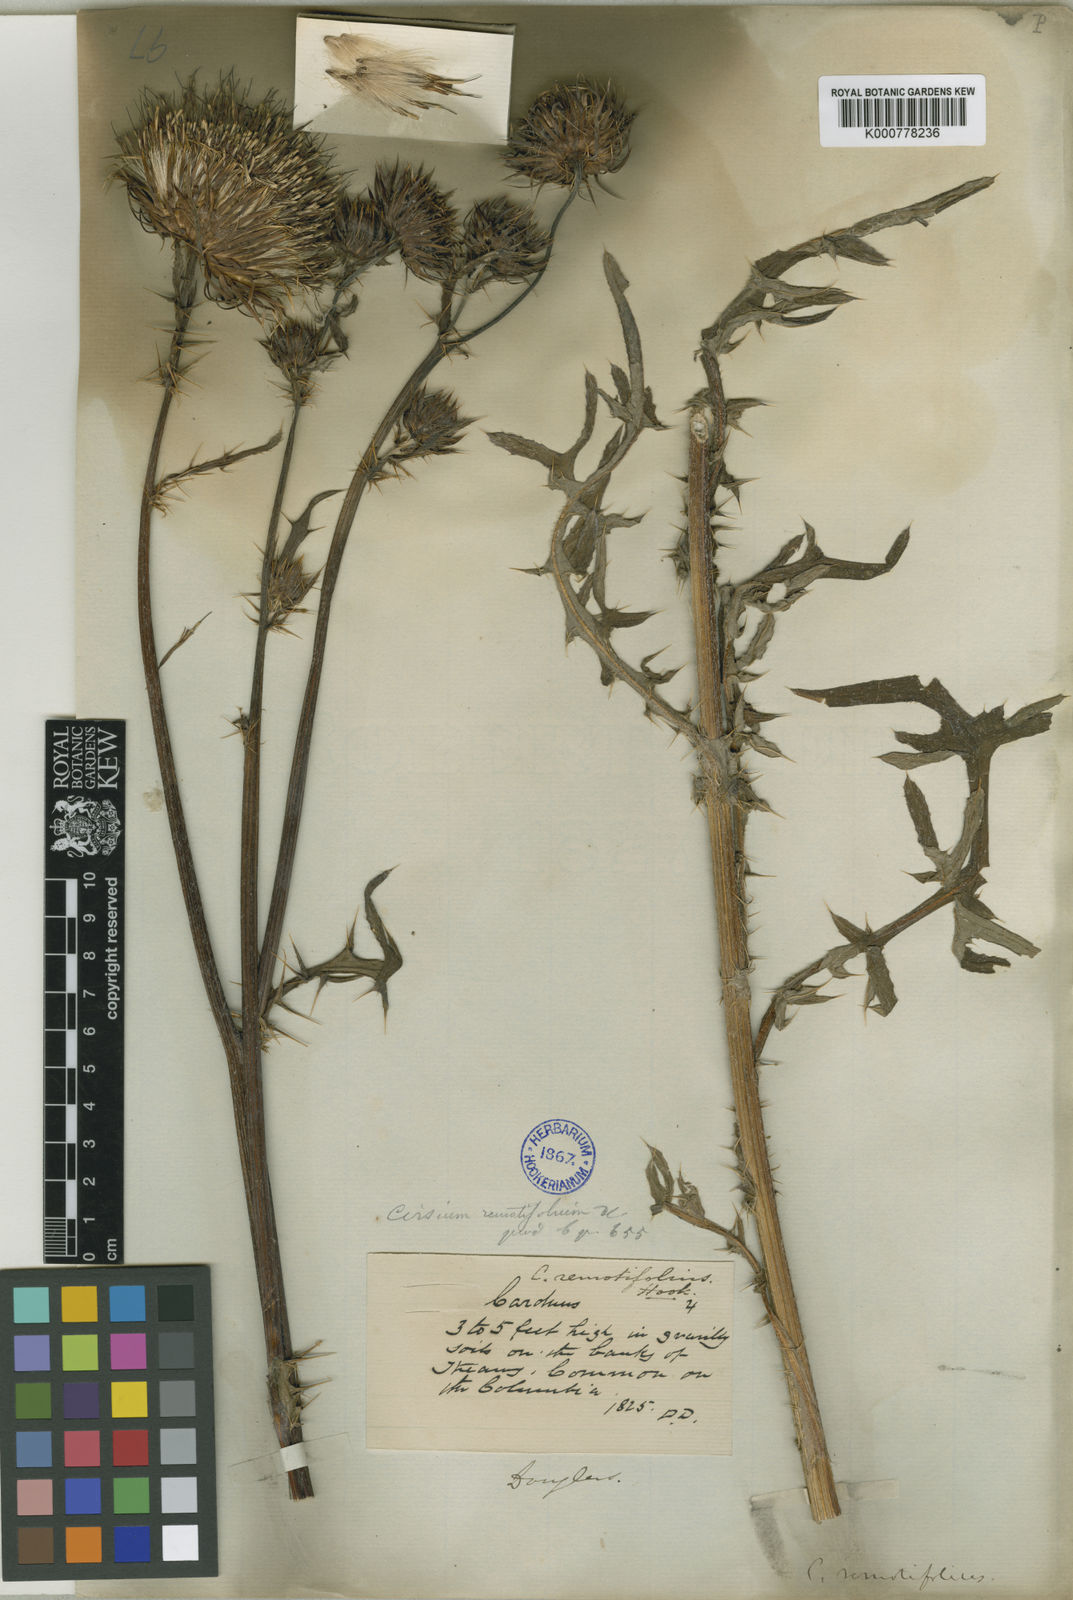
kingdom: Plantae
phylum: Tracheophyta
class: Magnoliopsida
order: Asterales
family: Asteraceae
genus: Cirsium
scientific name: Cirsium remotifolium
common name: Remote-leaf thistle
